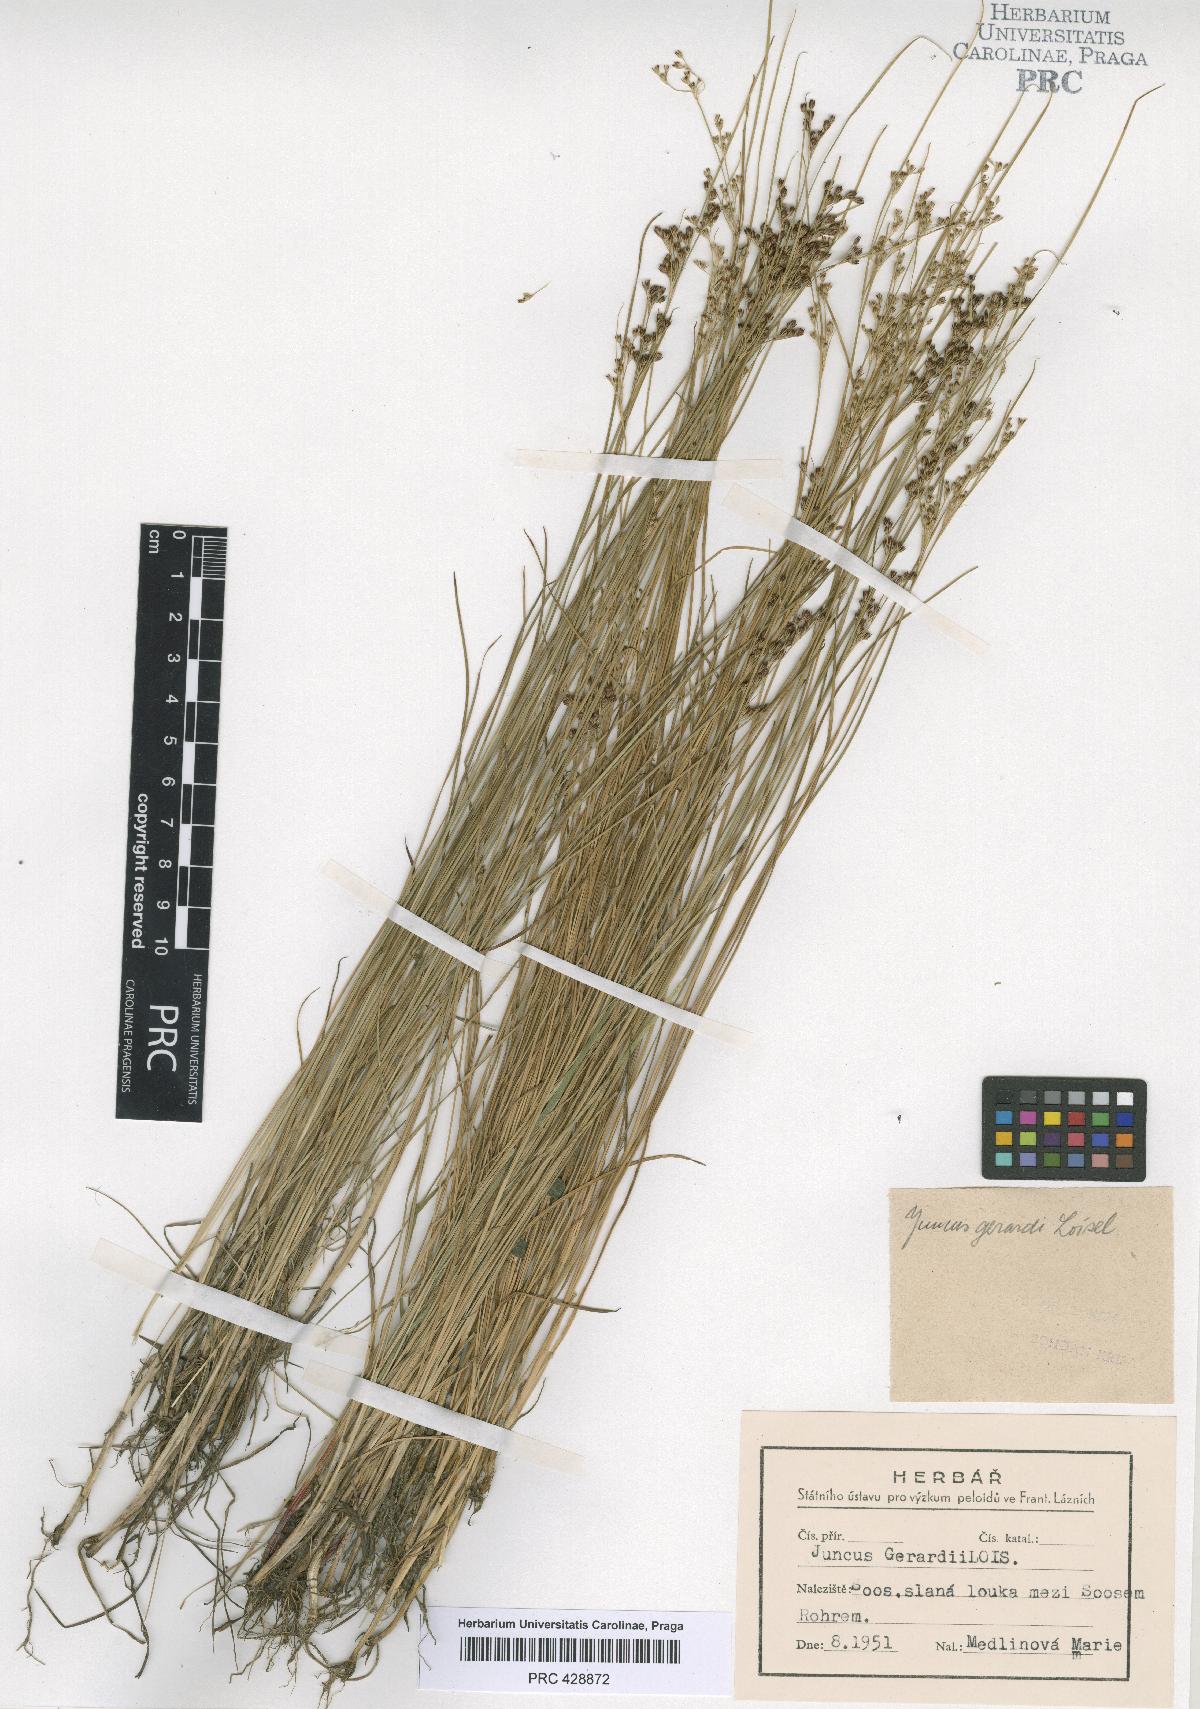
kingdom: Plantae
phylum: Tracheophyta
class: Liliopsida
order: Poales
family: Juncaceae
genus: Juncus
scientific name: Juncus compressus
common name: Round-fruited rush
